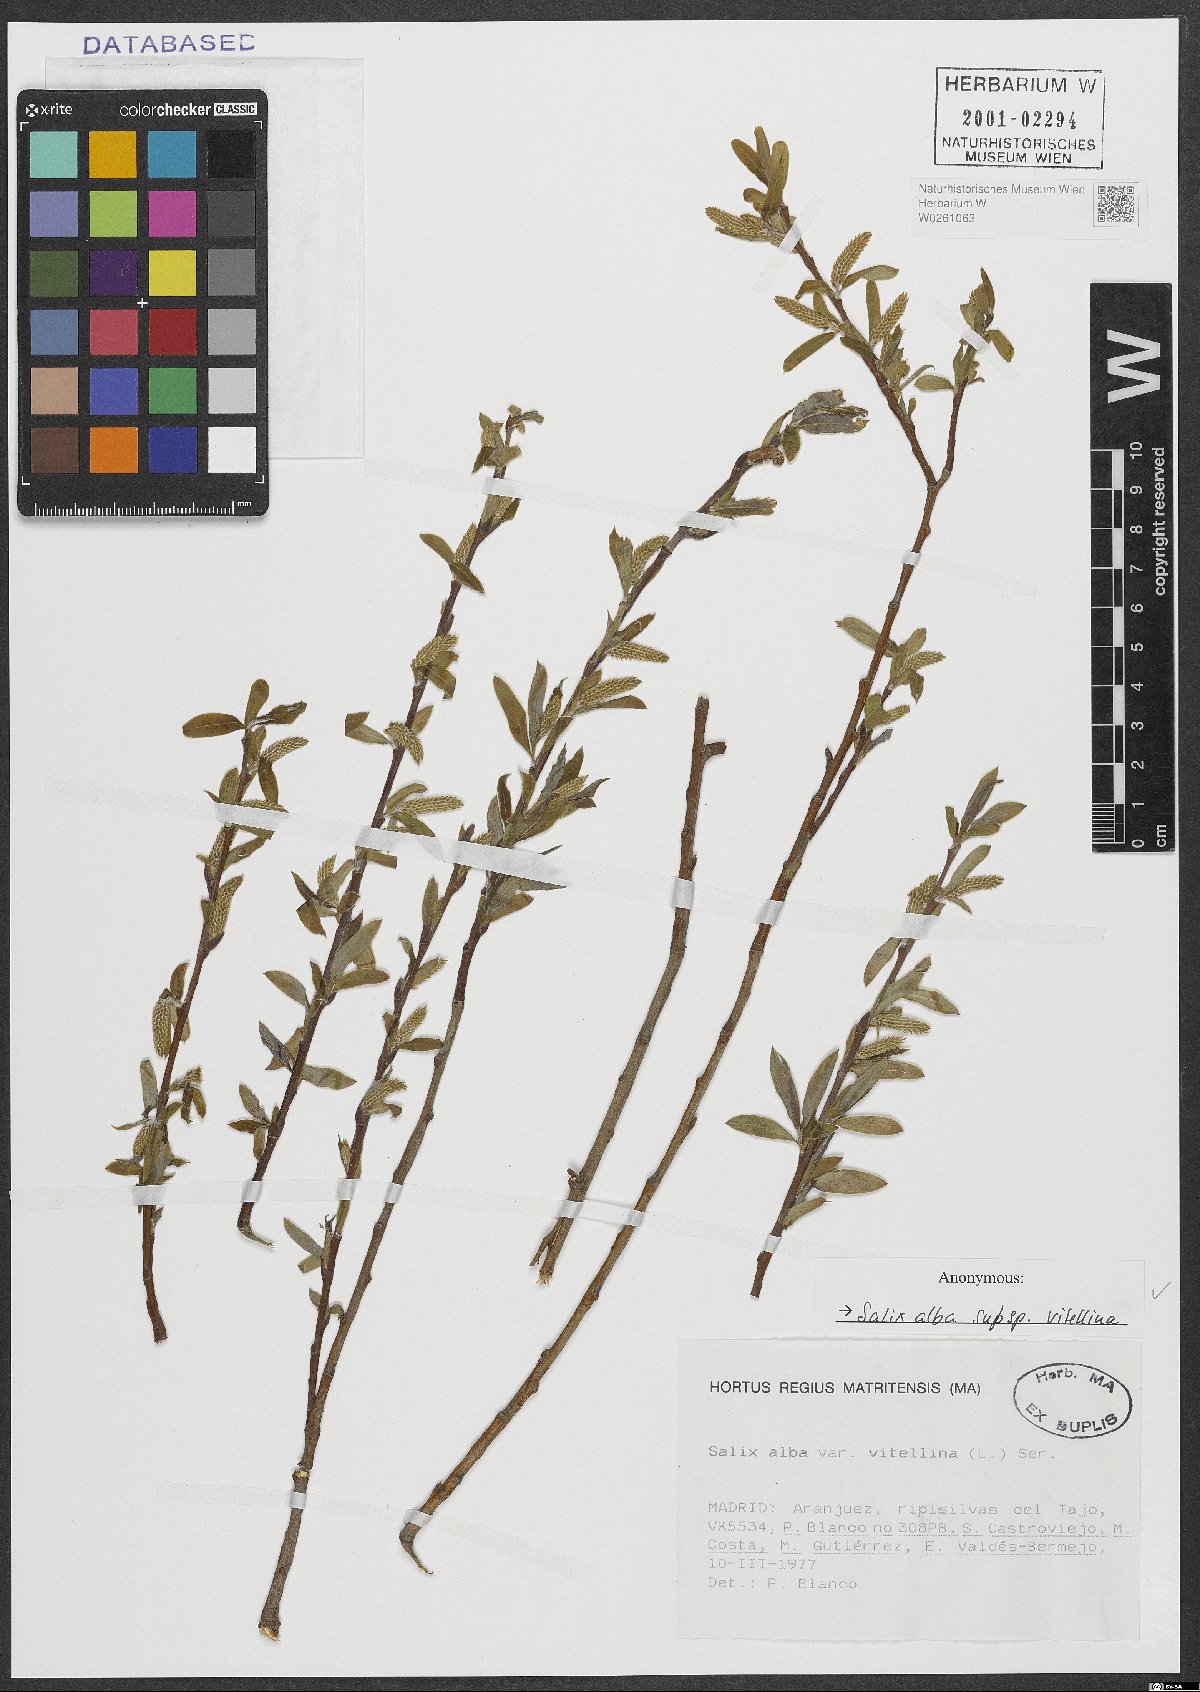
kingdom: Plantae
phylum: Tracheophyta
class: Magnoliopsida
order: Malpighiales
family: Salicaceae
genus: Salix
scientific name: Salix alba
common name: White willow
